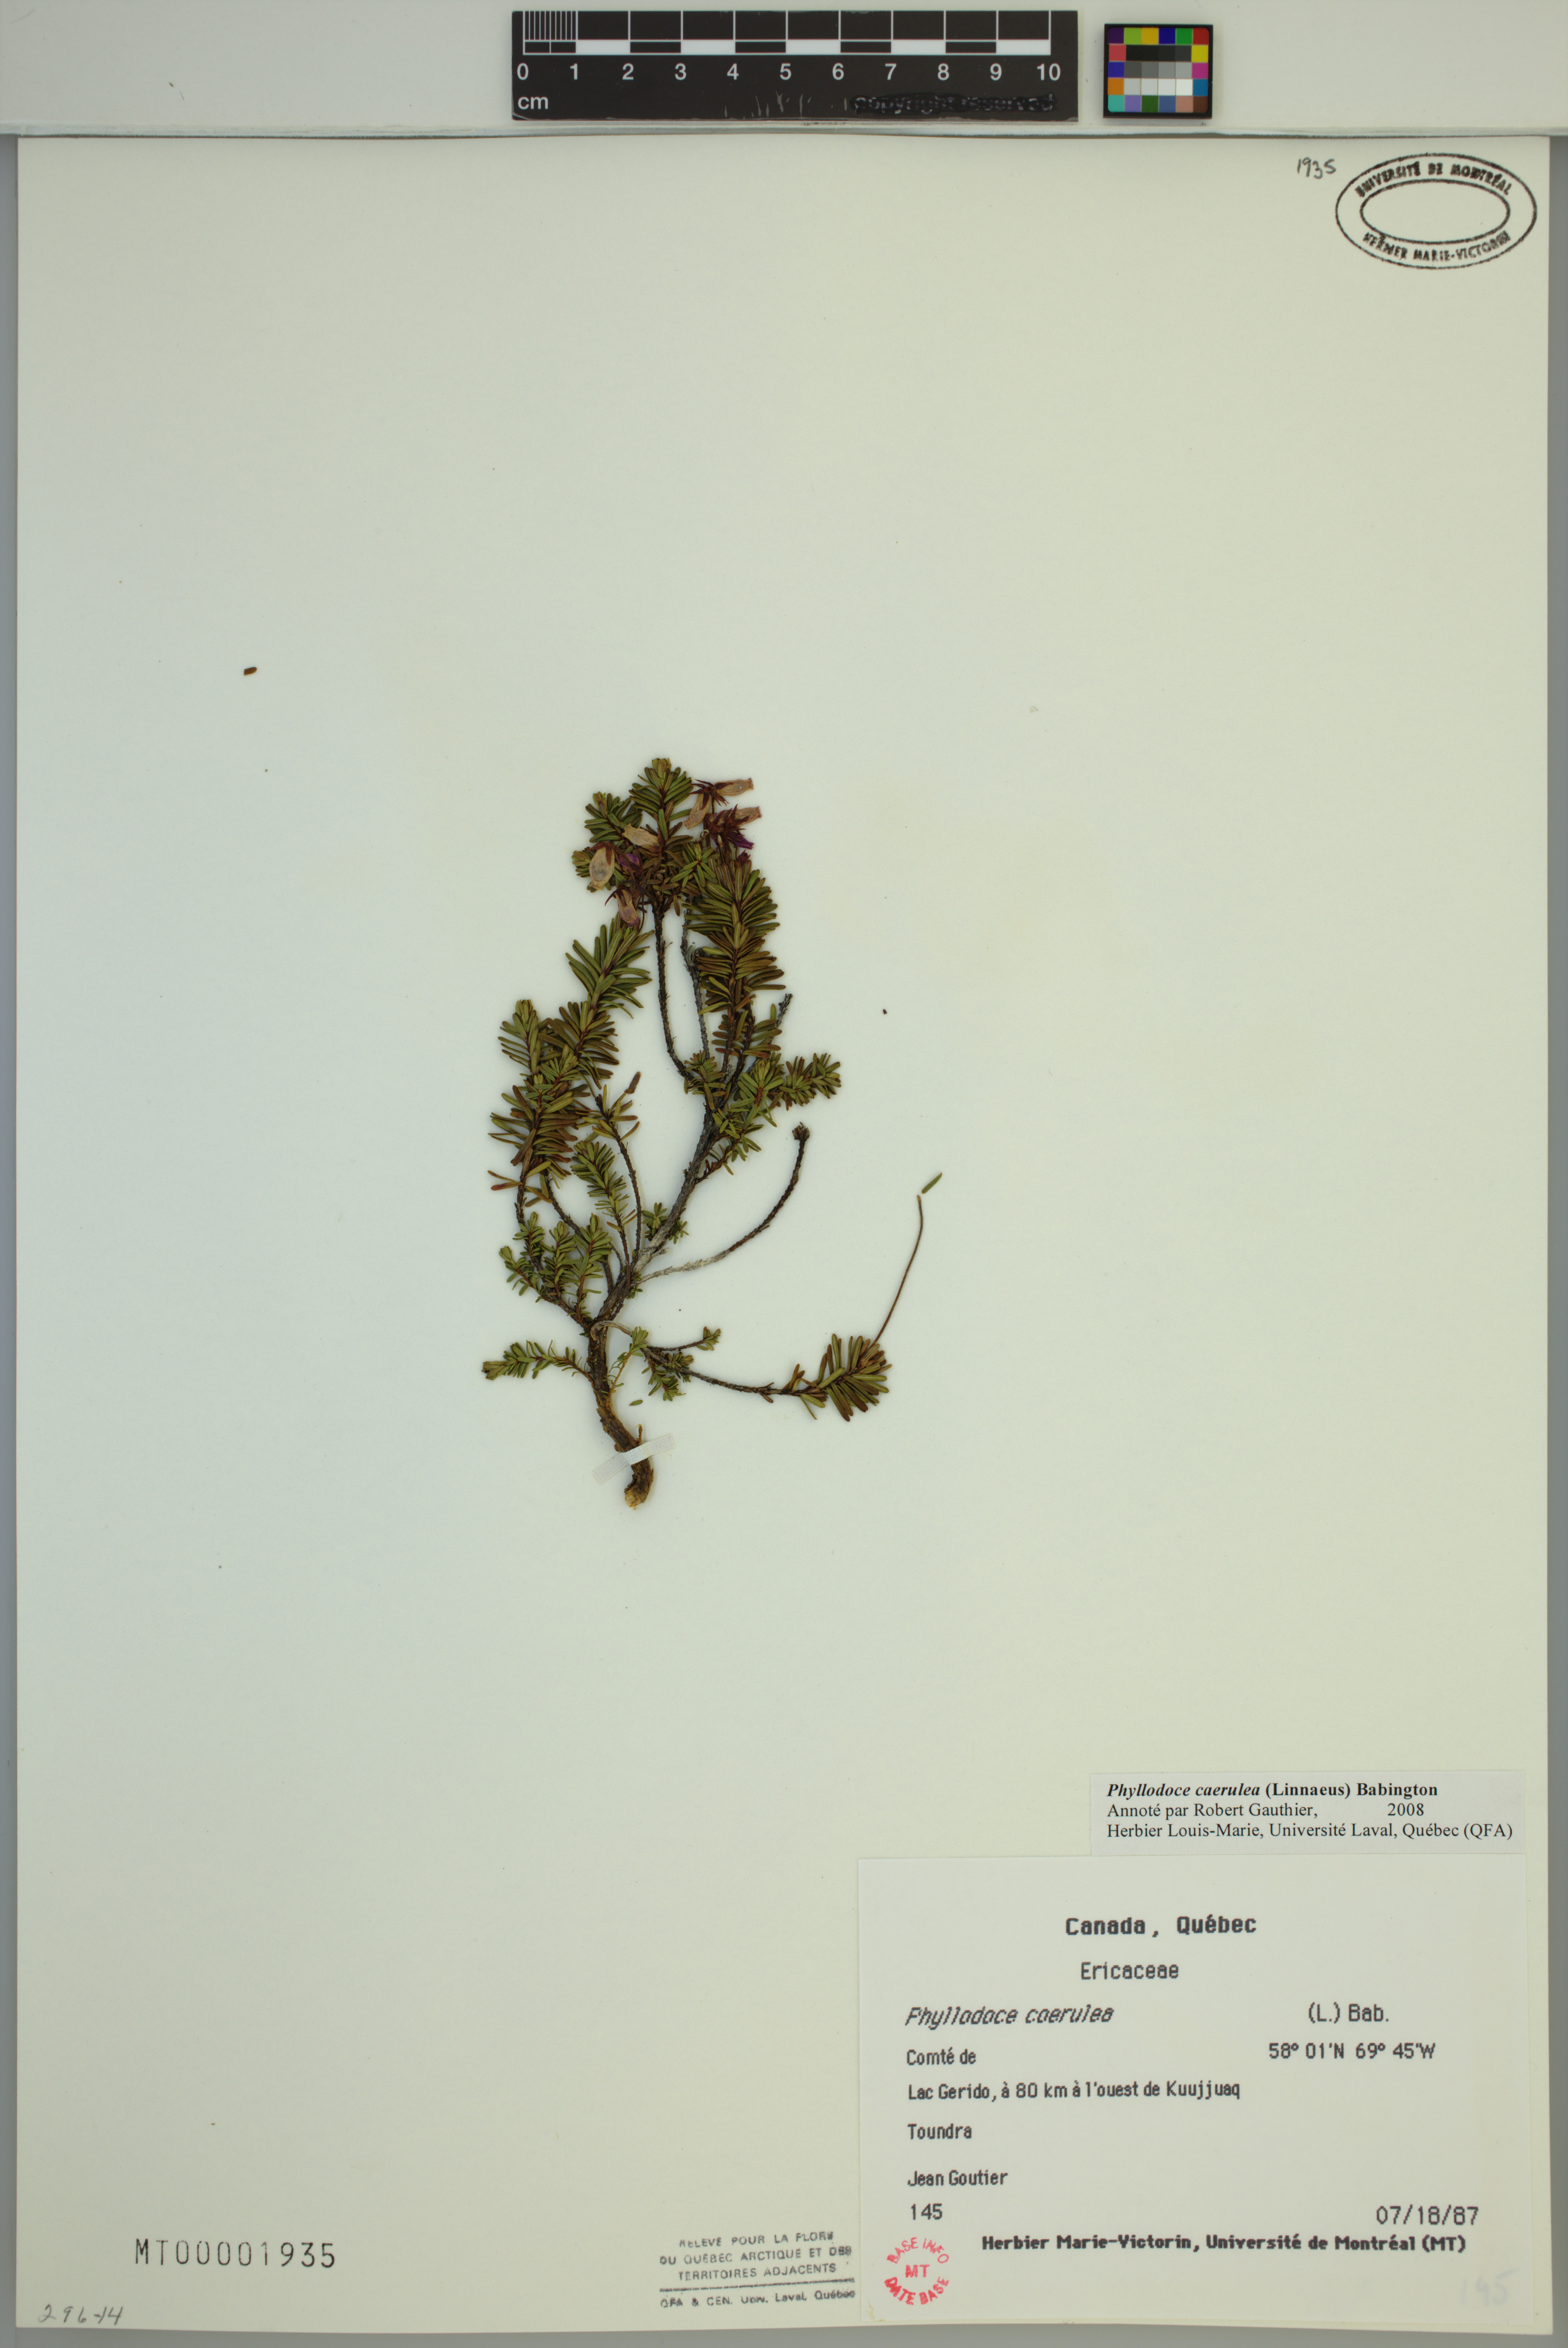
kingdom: Plantae
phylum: Tracheophyta
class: Magnoliopsida
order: Ericales
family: Ericaceae
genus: Phyllodoce
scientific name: Phyllodoce caerulea
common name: Blue heath
